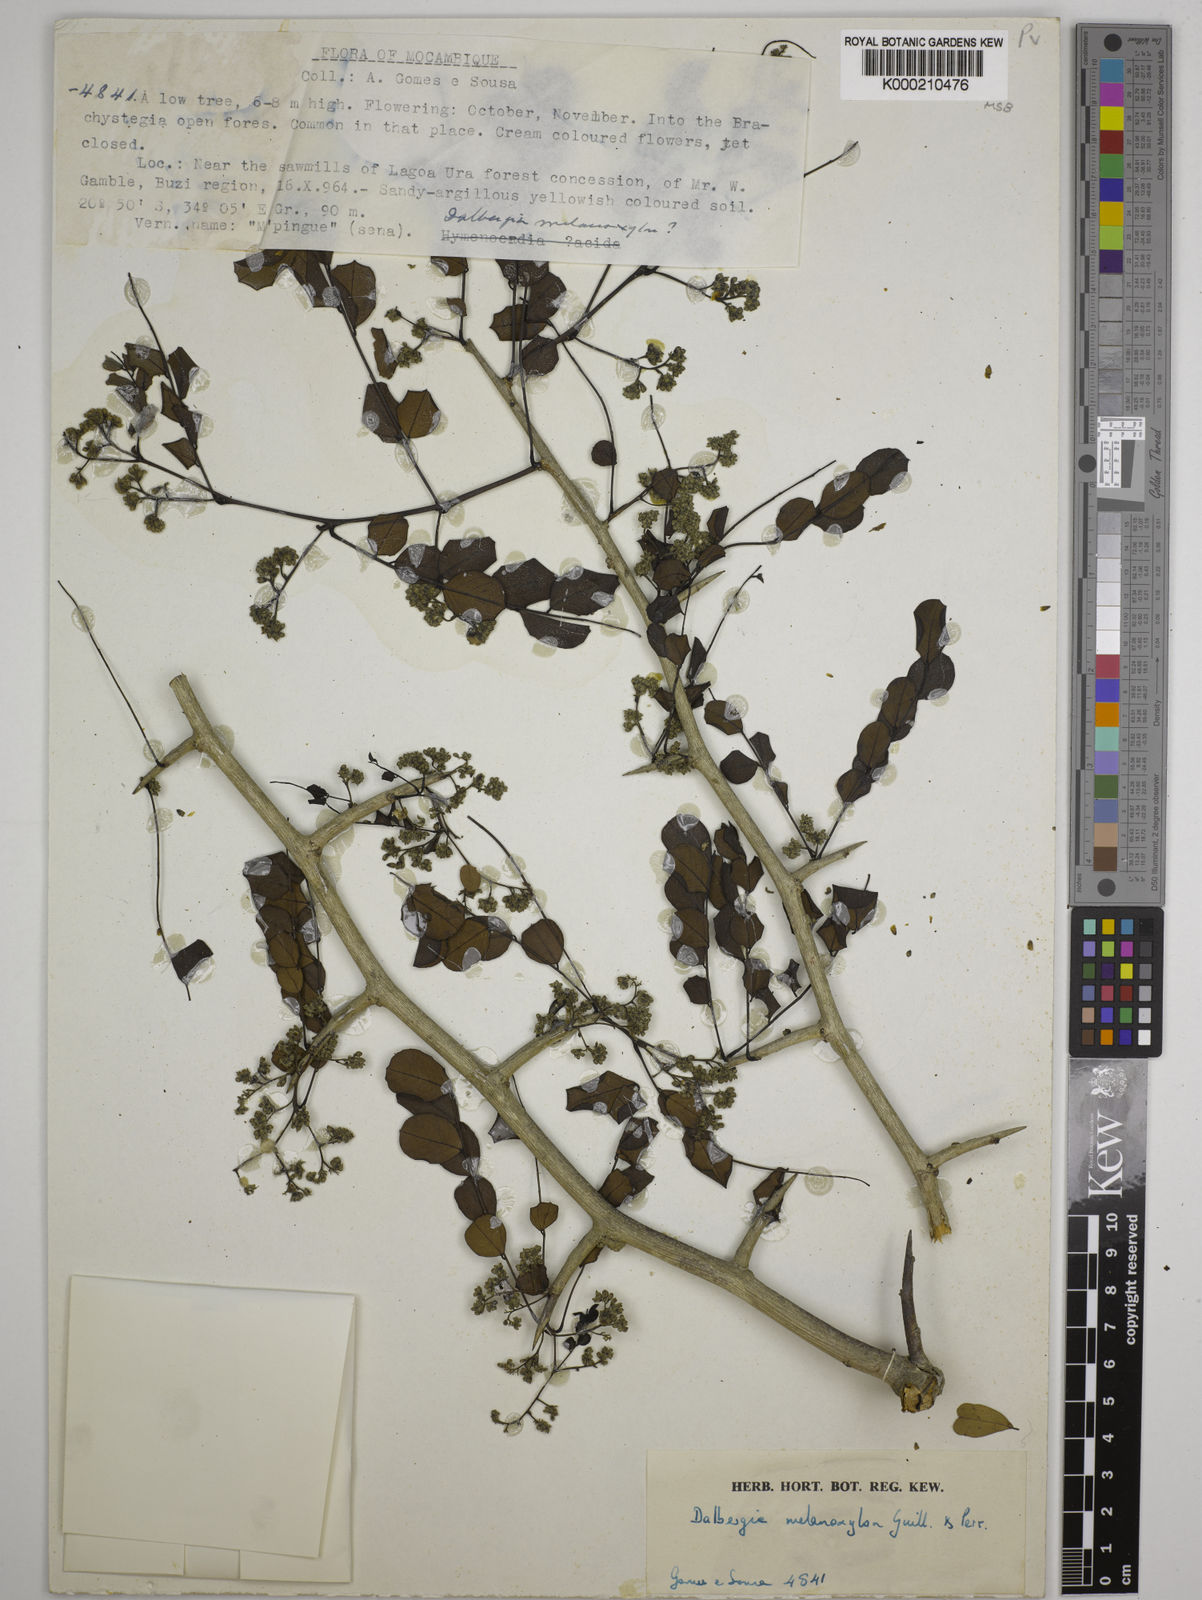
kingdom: Plantae
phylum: Tracheophyta
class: Magnoliopsida
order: Fabales
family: Fabaceae
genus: Dalbergia
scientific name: Dalbergia melanoxylon
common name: African blackwood
